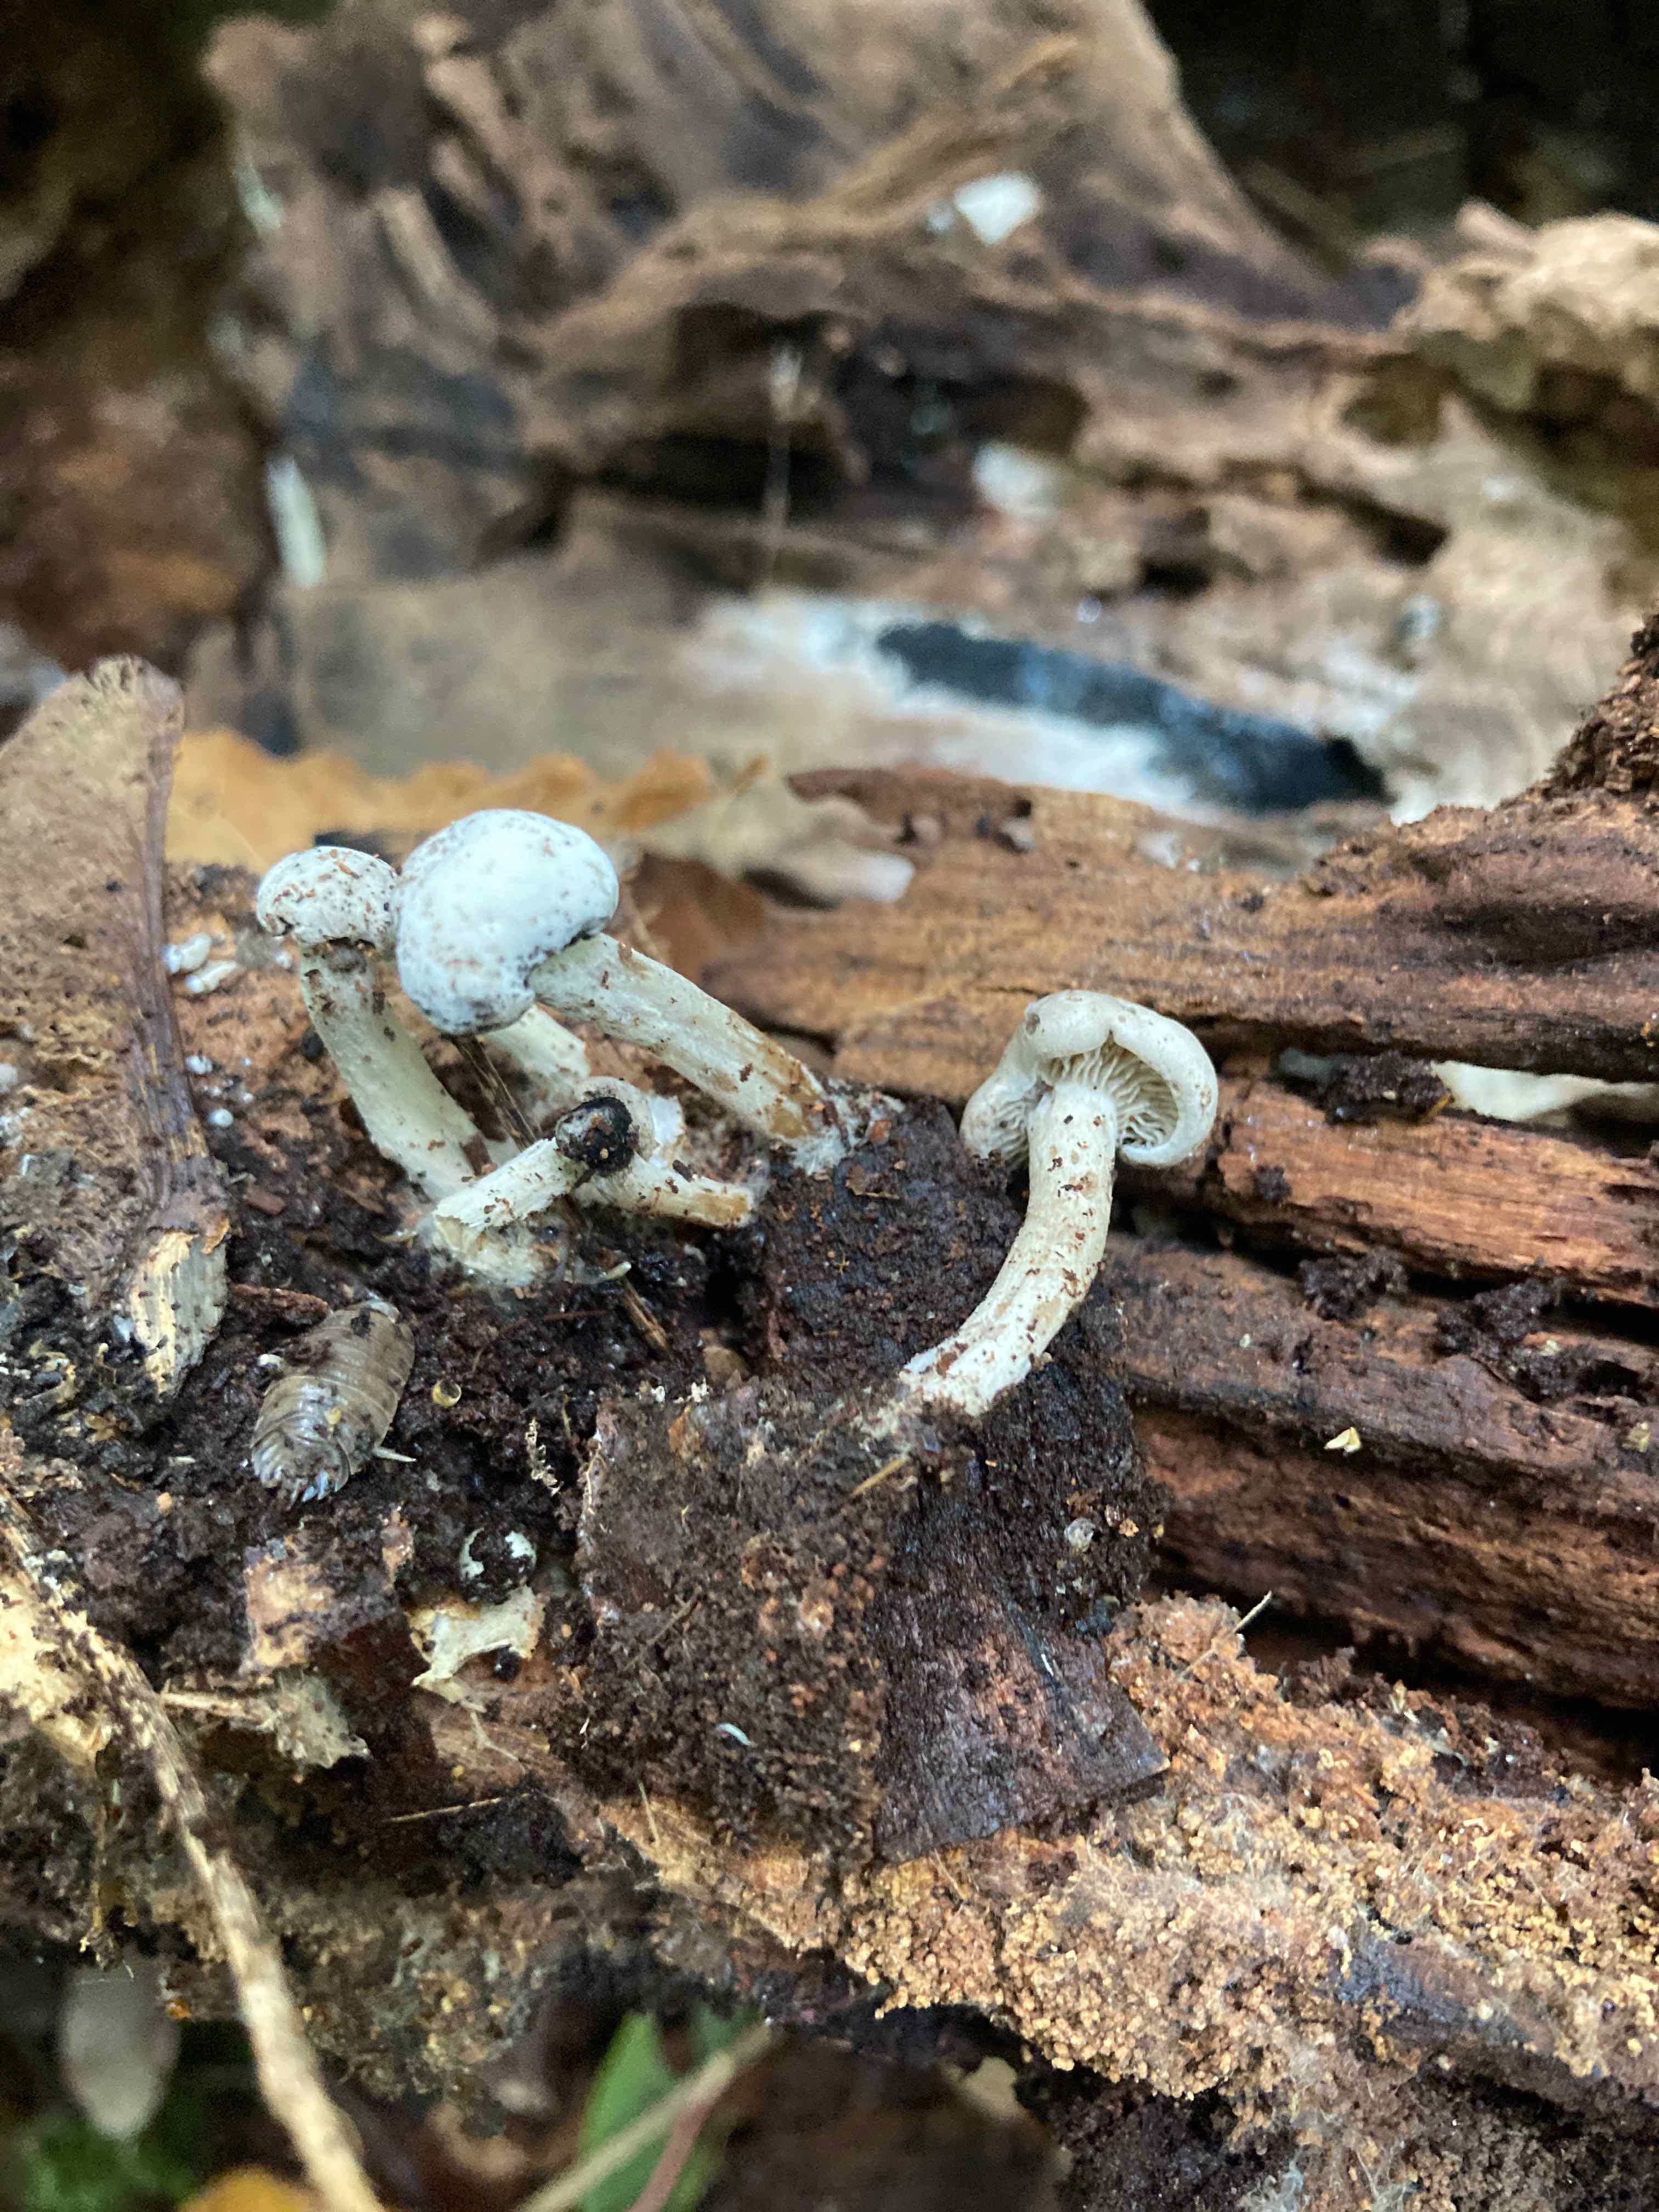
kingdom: Fungi
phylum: Basidiomycota
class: Agaricomycetes
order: Agaricales
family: Lyophyllaceae
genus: Tephrocybella
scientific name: Tephrocybella griseonigrescens
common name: grånende fagerhat
